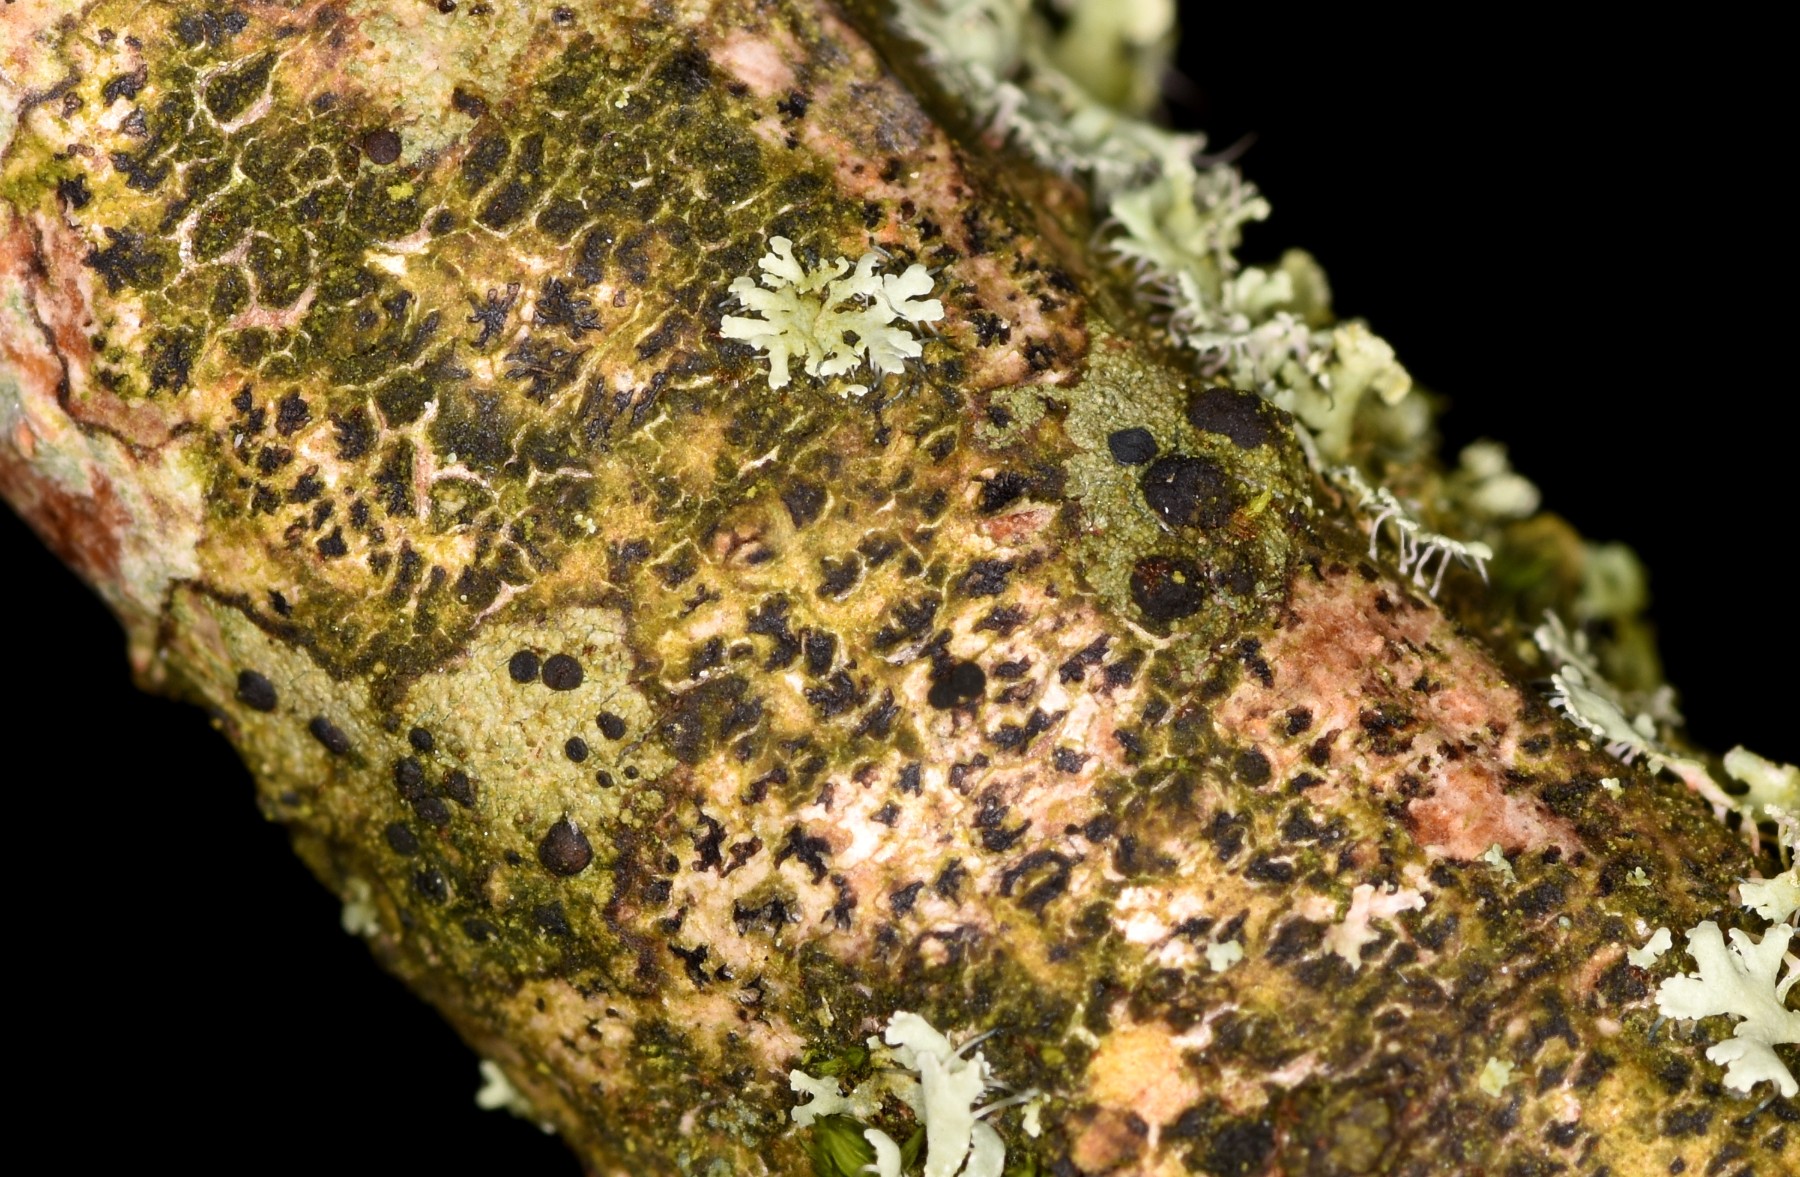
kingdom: Fungi
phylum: Ascomycota
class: Arthoniomycetes
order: Arthoniales
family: Arthoniaceae
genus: Arthonia
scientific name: Arthonia radiata
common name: stjerne-pletlav
